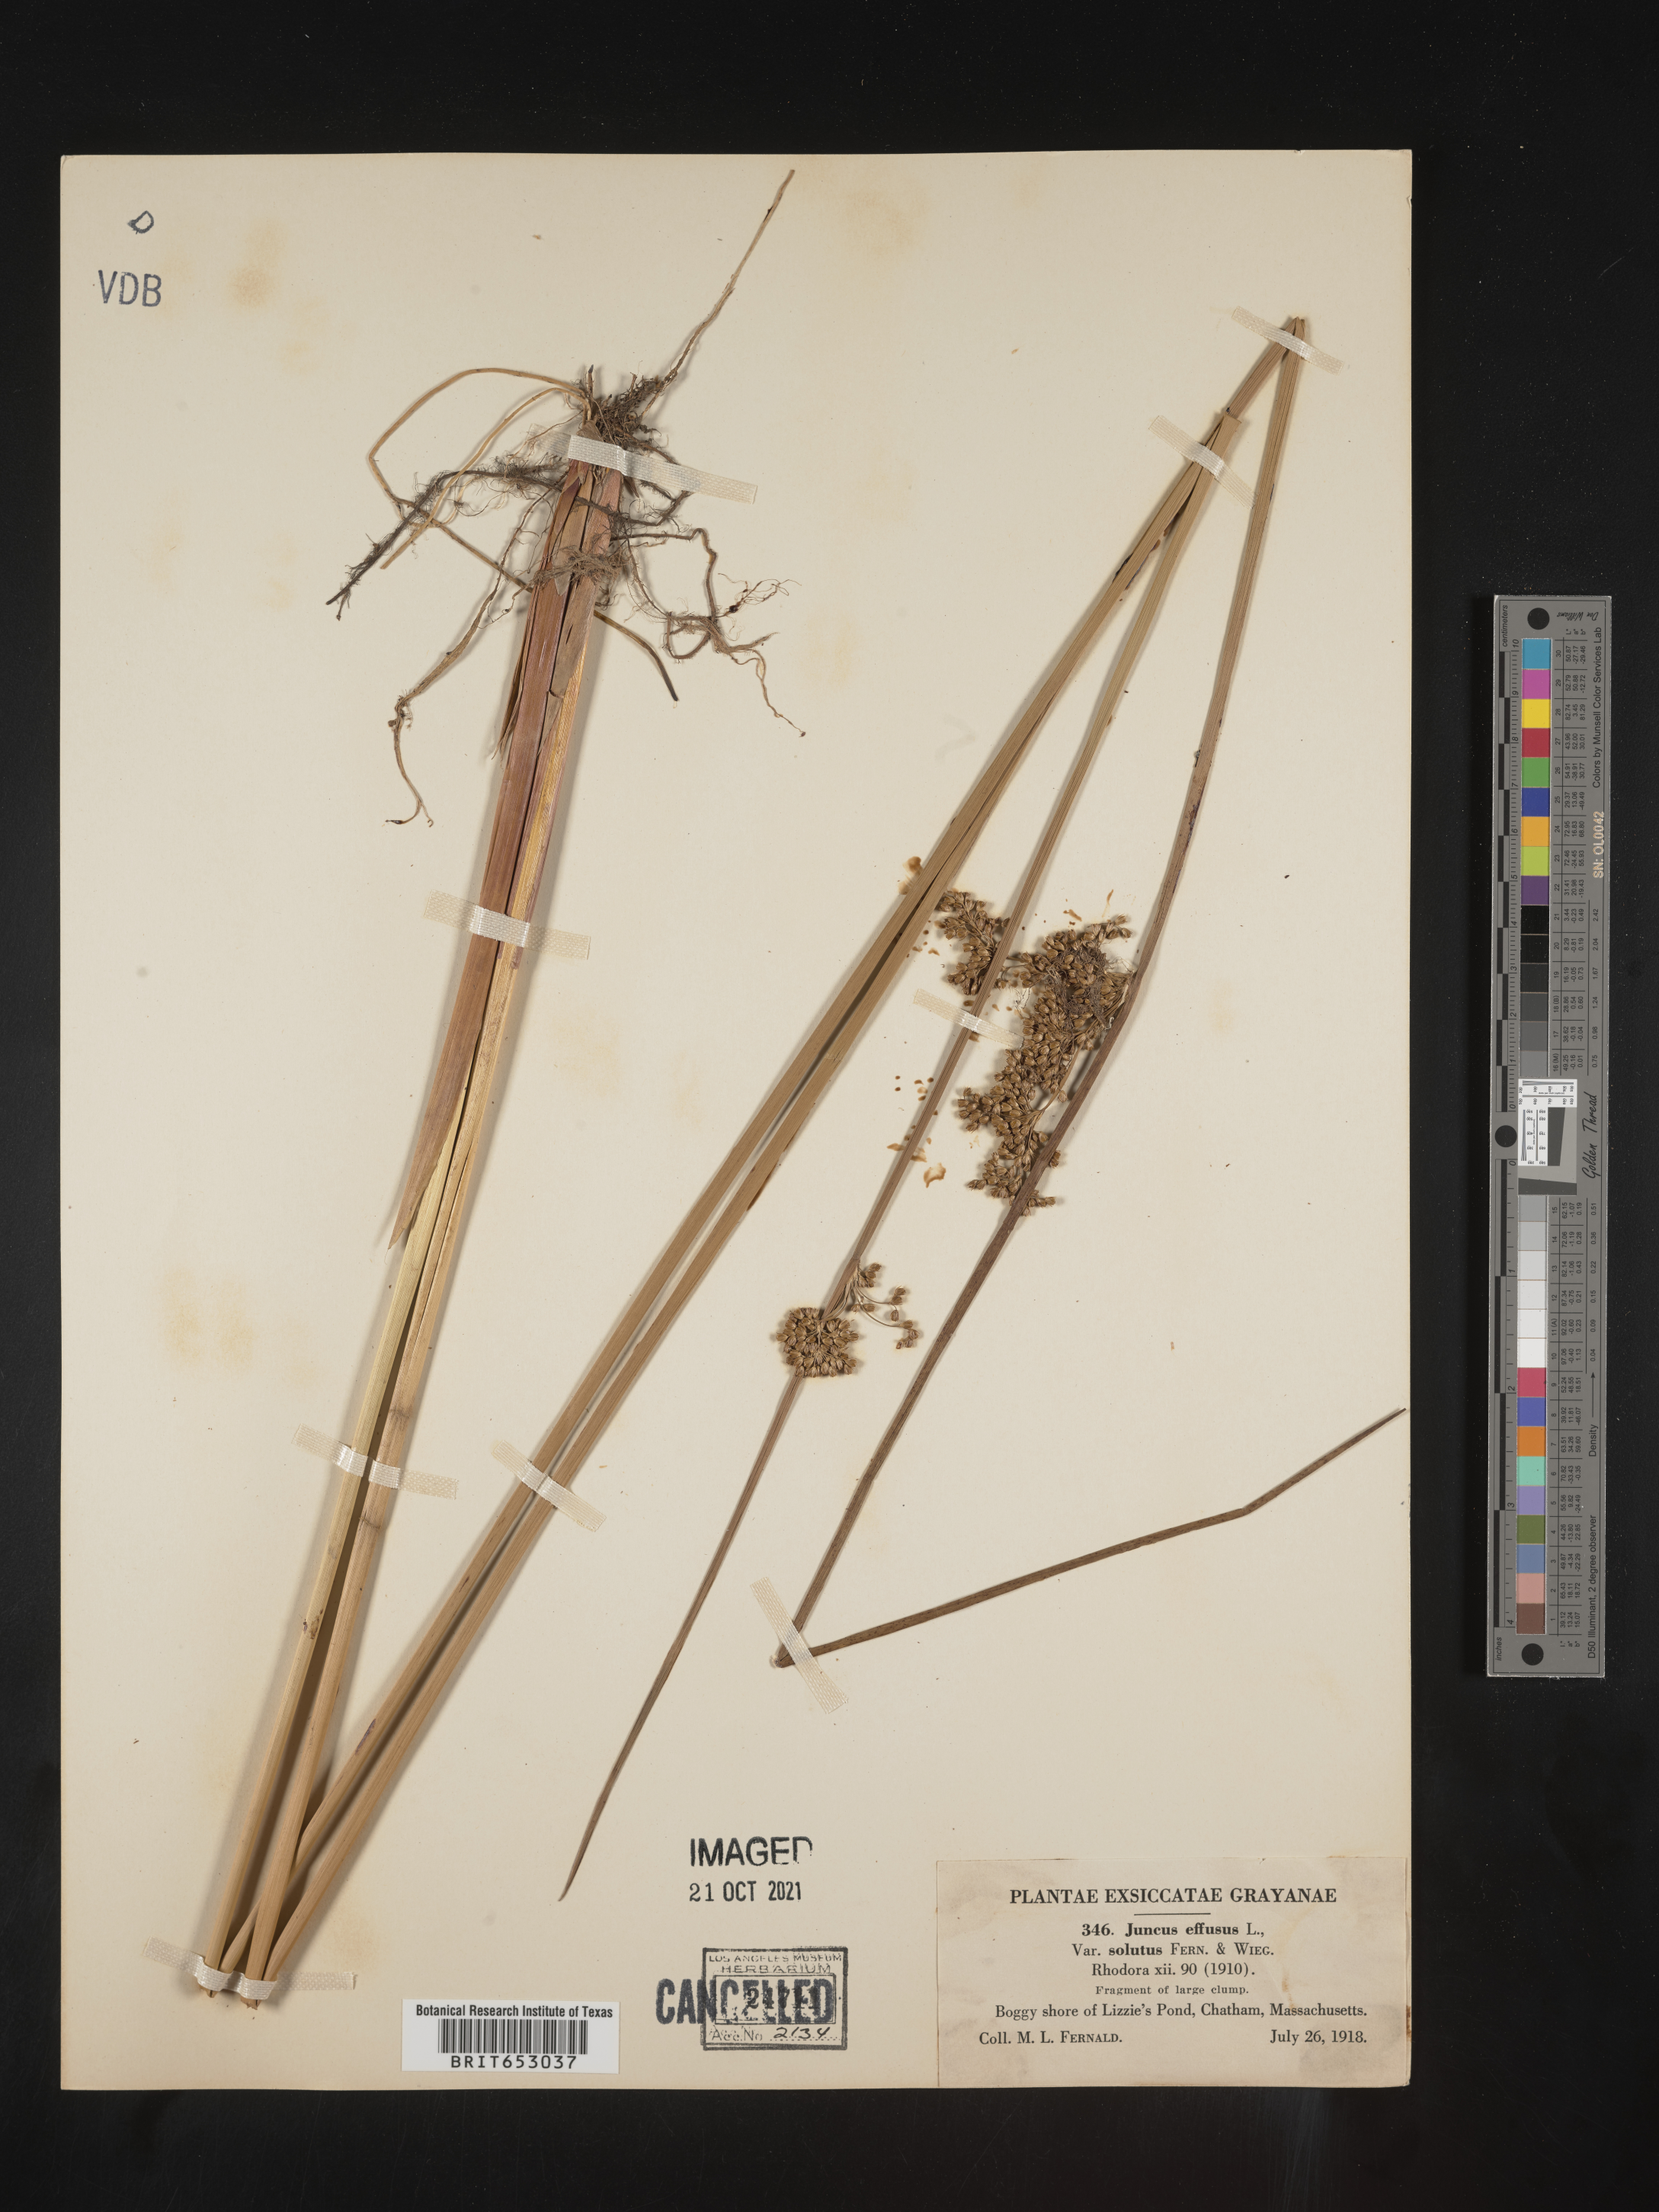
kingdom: Plantae
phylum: Tracheophyta
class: Liliopsida
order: Poales
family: Juncaceae
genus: Juncus
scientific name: Juncus effusus
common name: Soft rush
